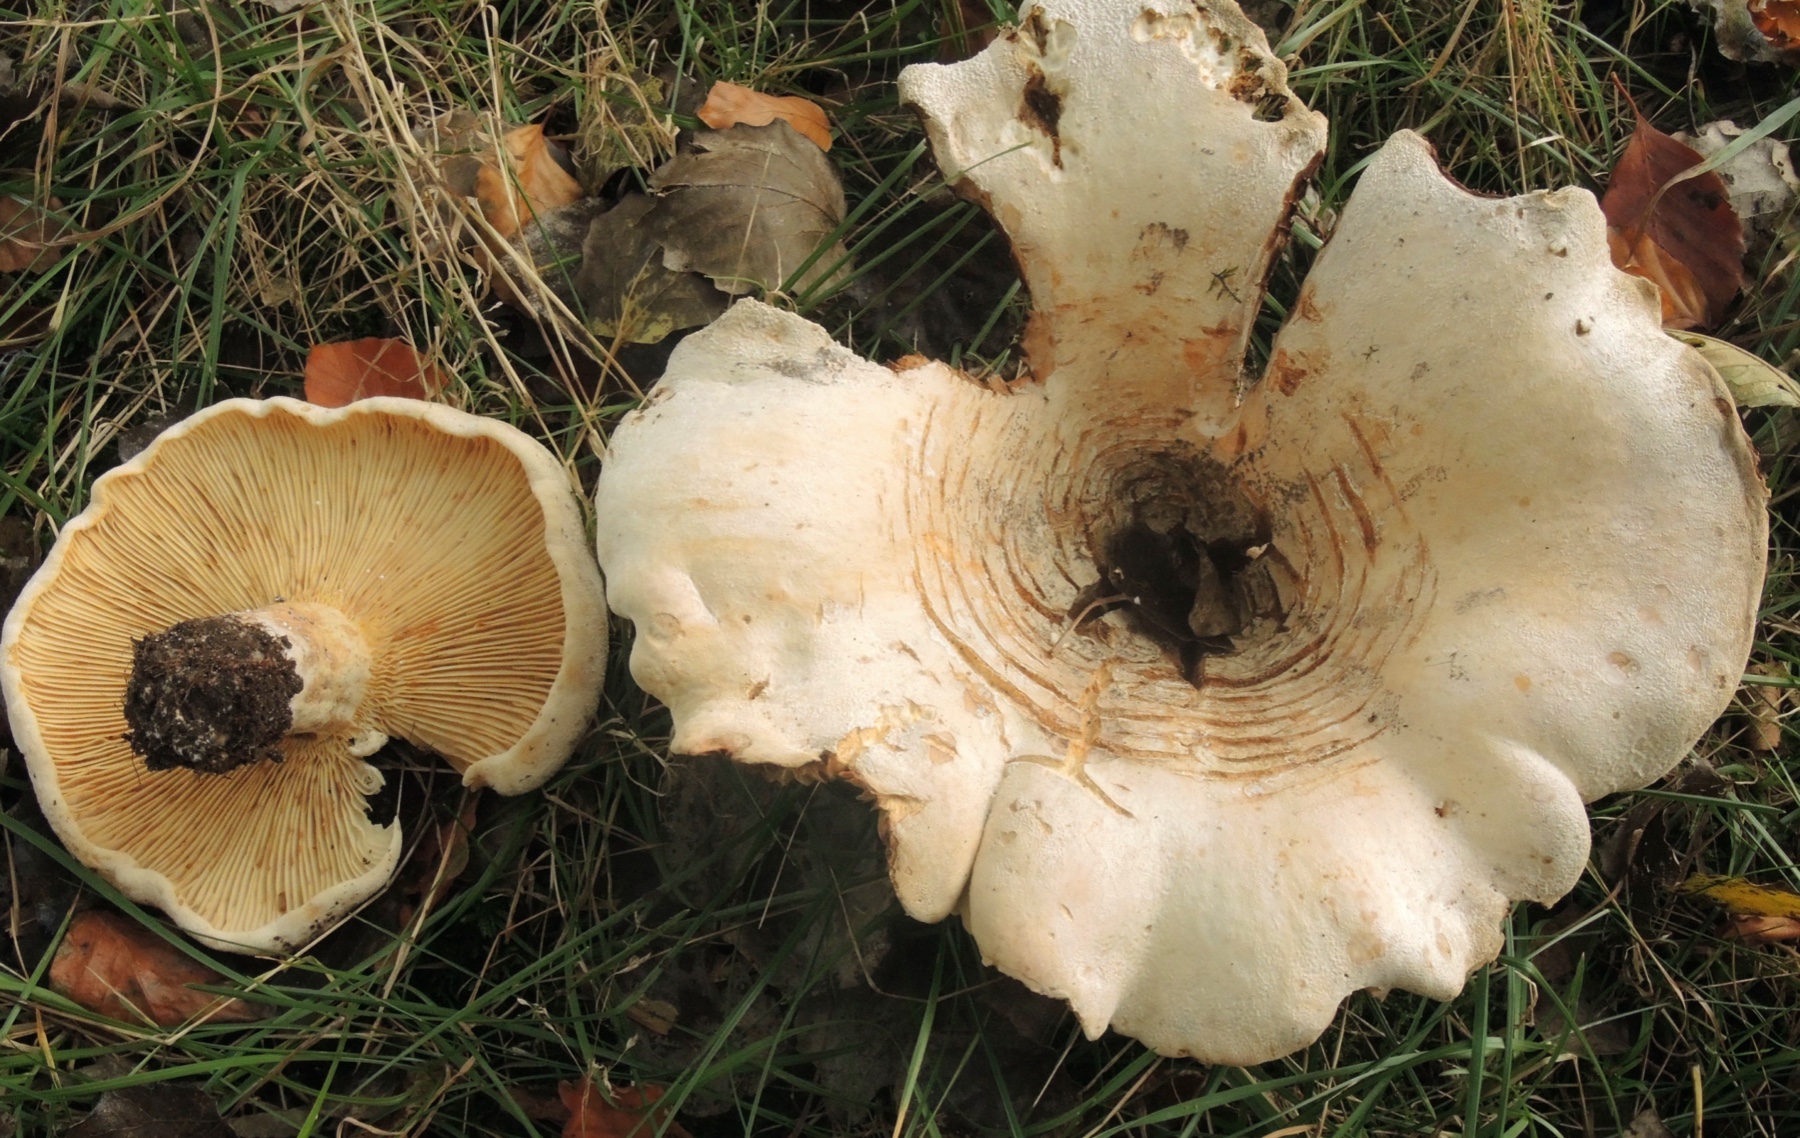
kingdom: Fungi
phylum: Basidiomycota
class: Agaricomycetes
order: Russulales
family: Russulaceae
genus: Lactifluus
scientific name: Lactifluus vellereus
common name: hvidfiltet mælkehat
